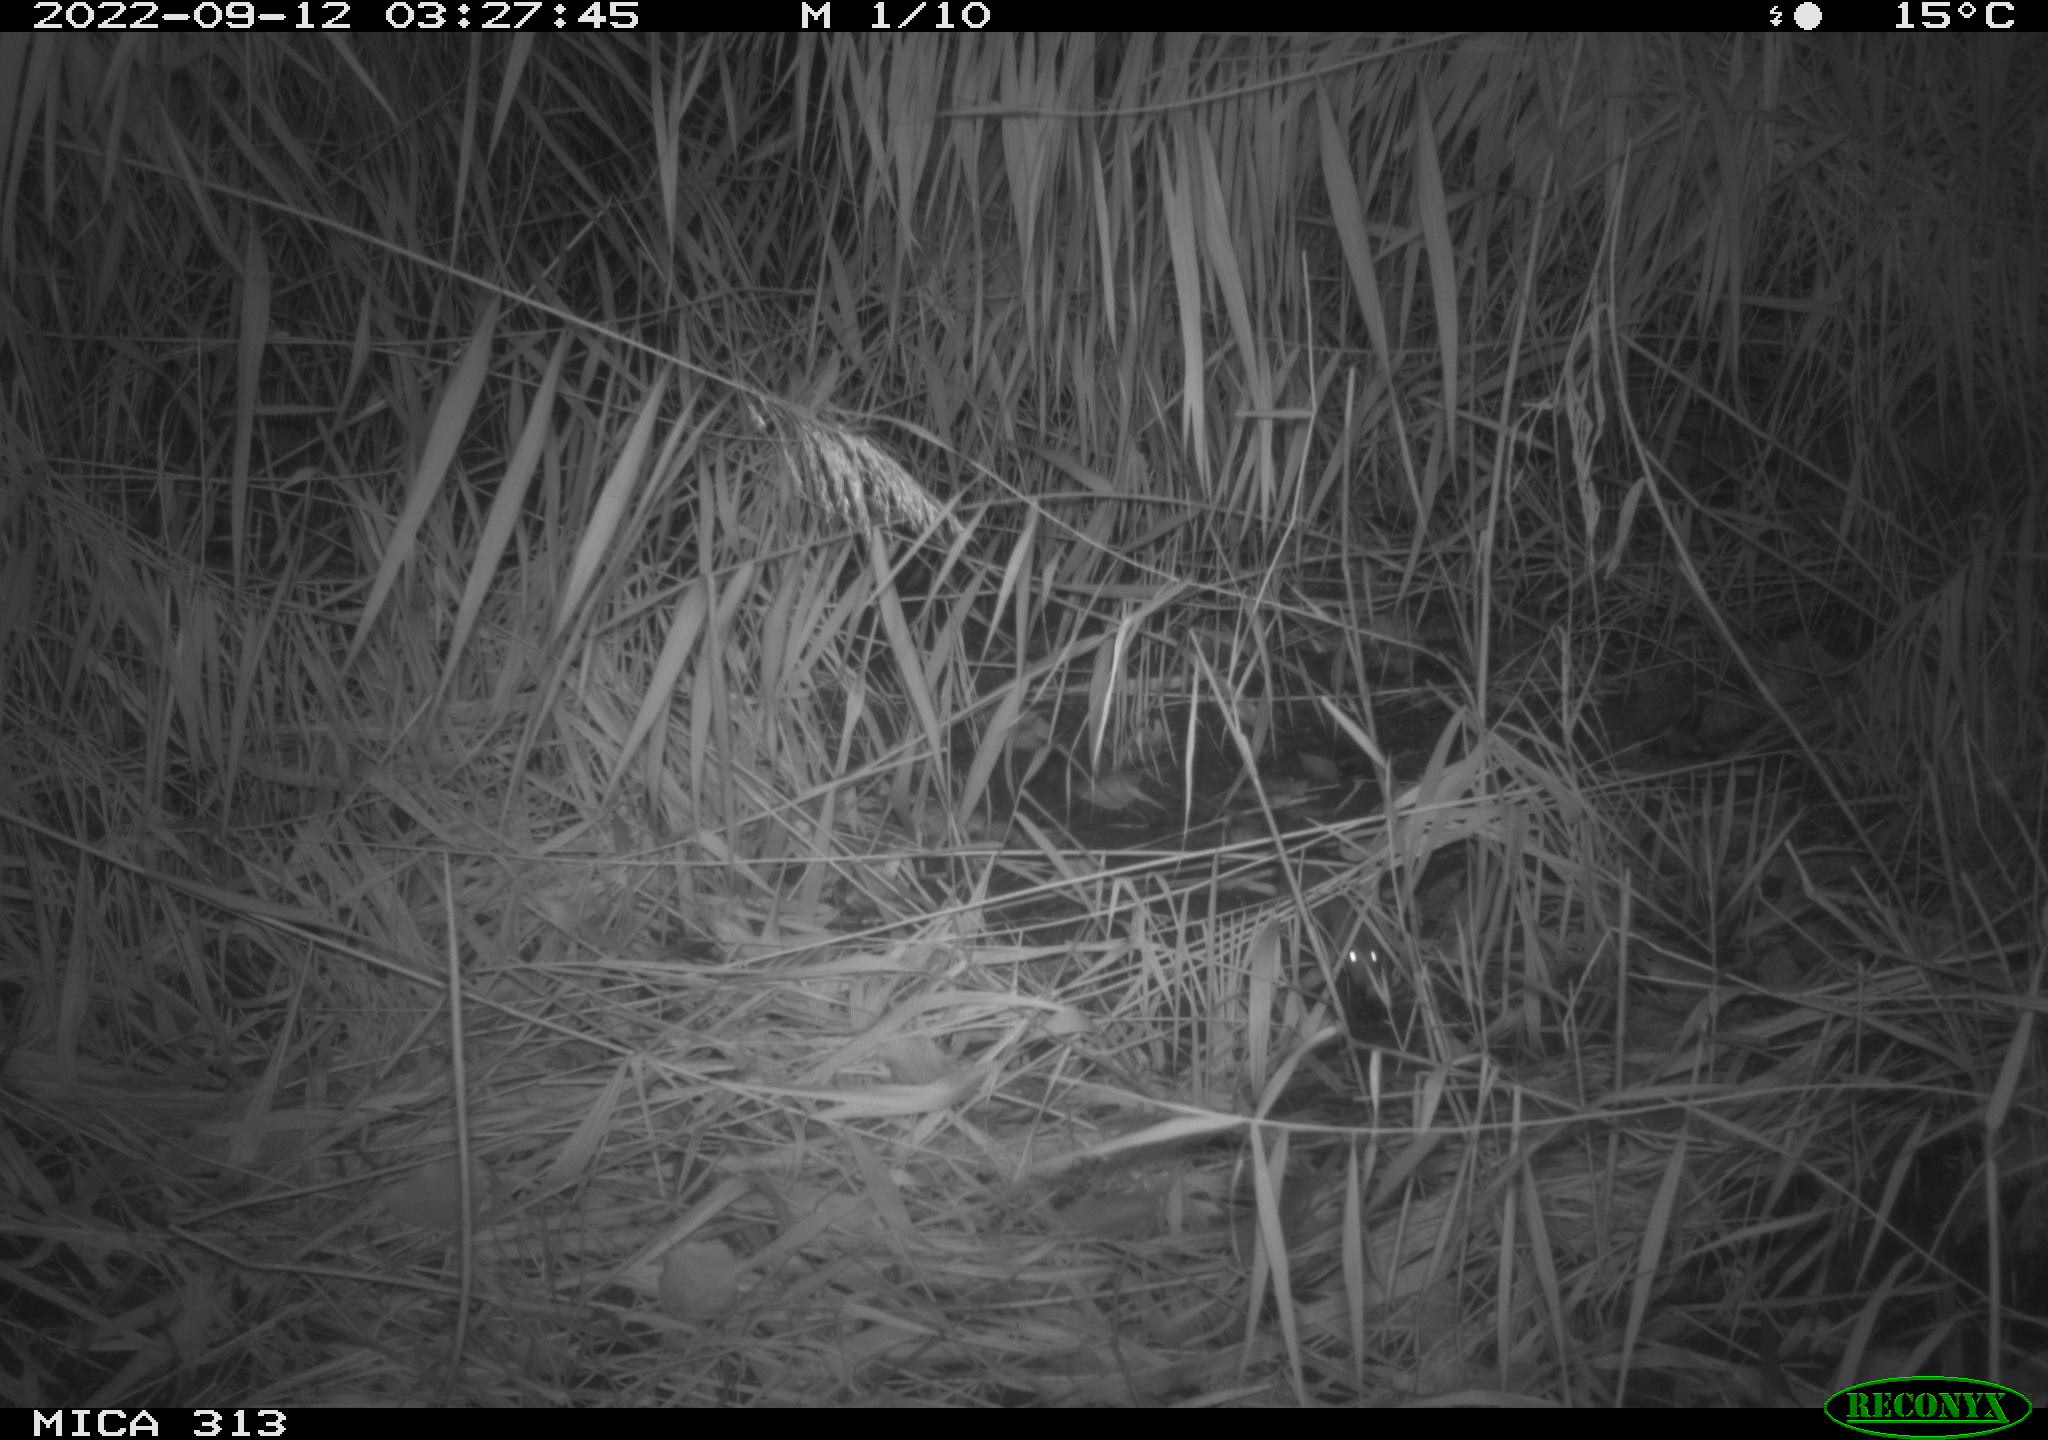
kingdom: Animalia
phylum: Chordata
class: Mammalia
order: Rodentia
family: Muridae
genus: Rattus
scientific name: Rattus norvegicus
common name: Brown rat
